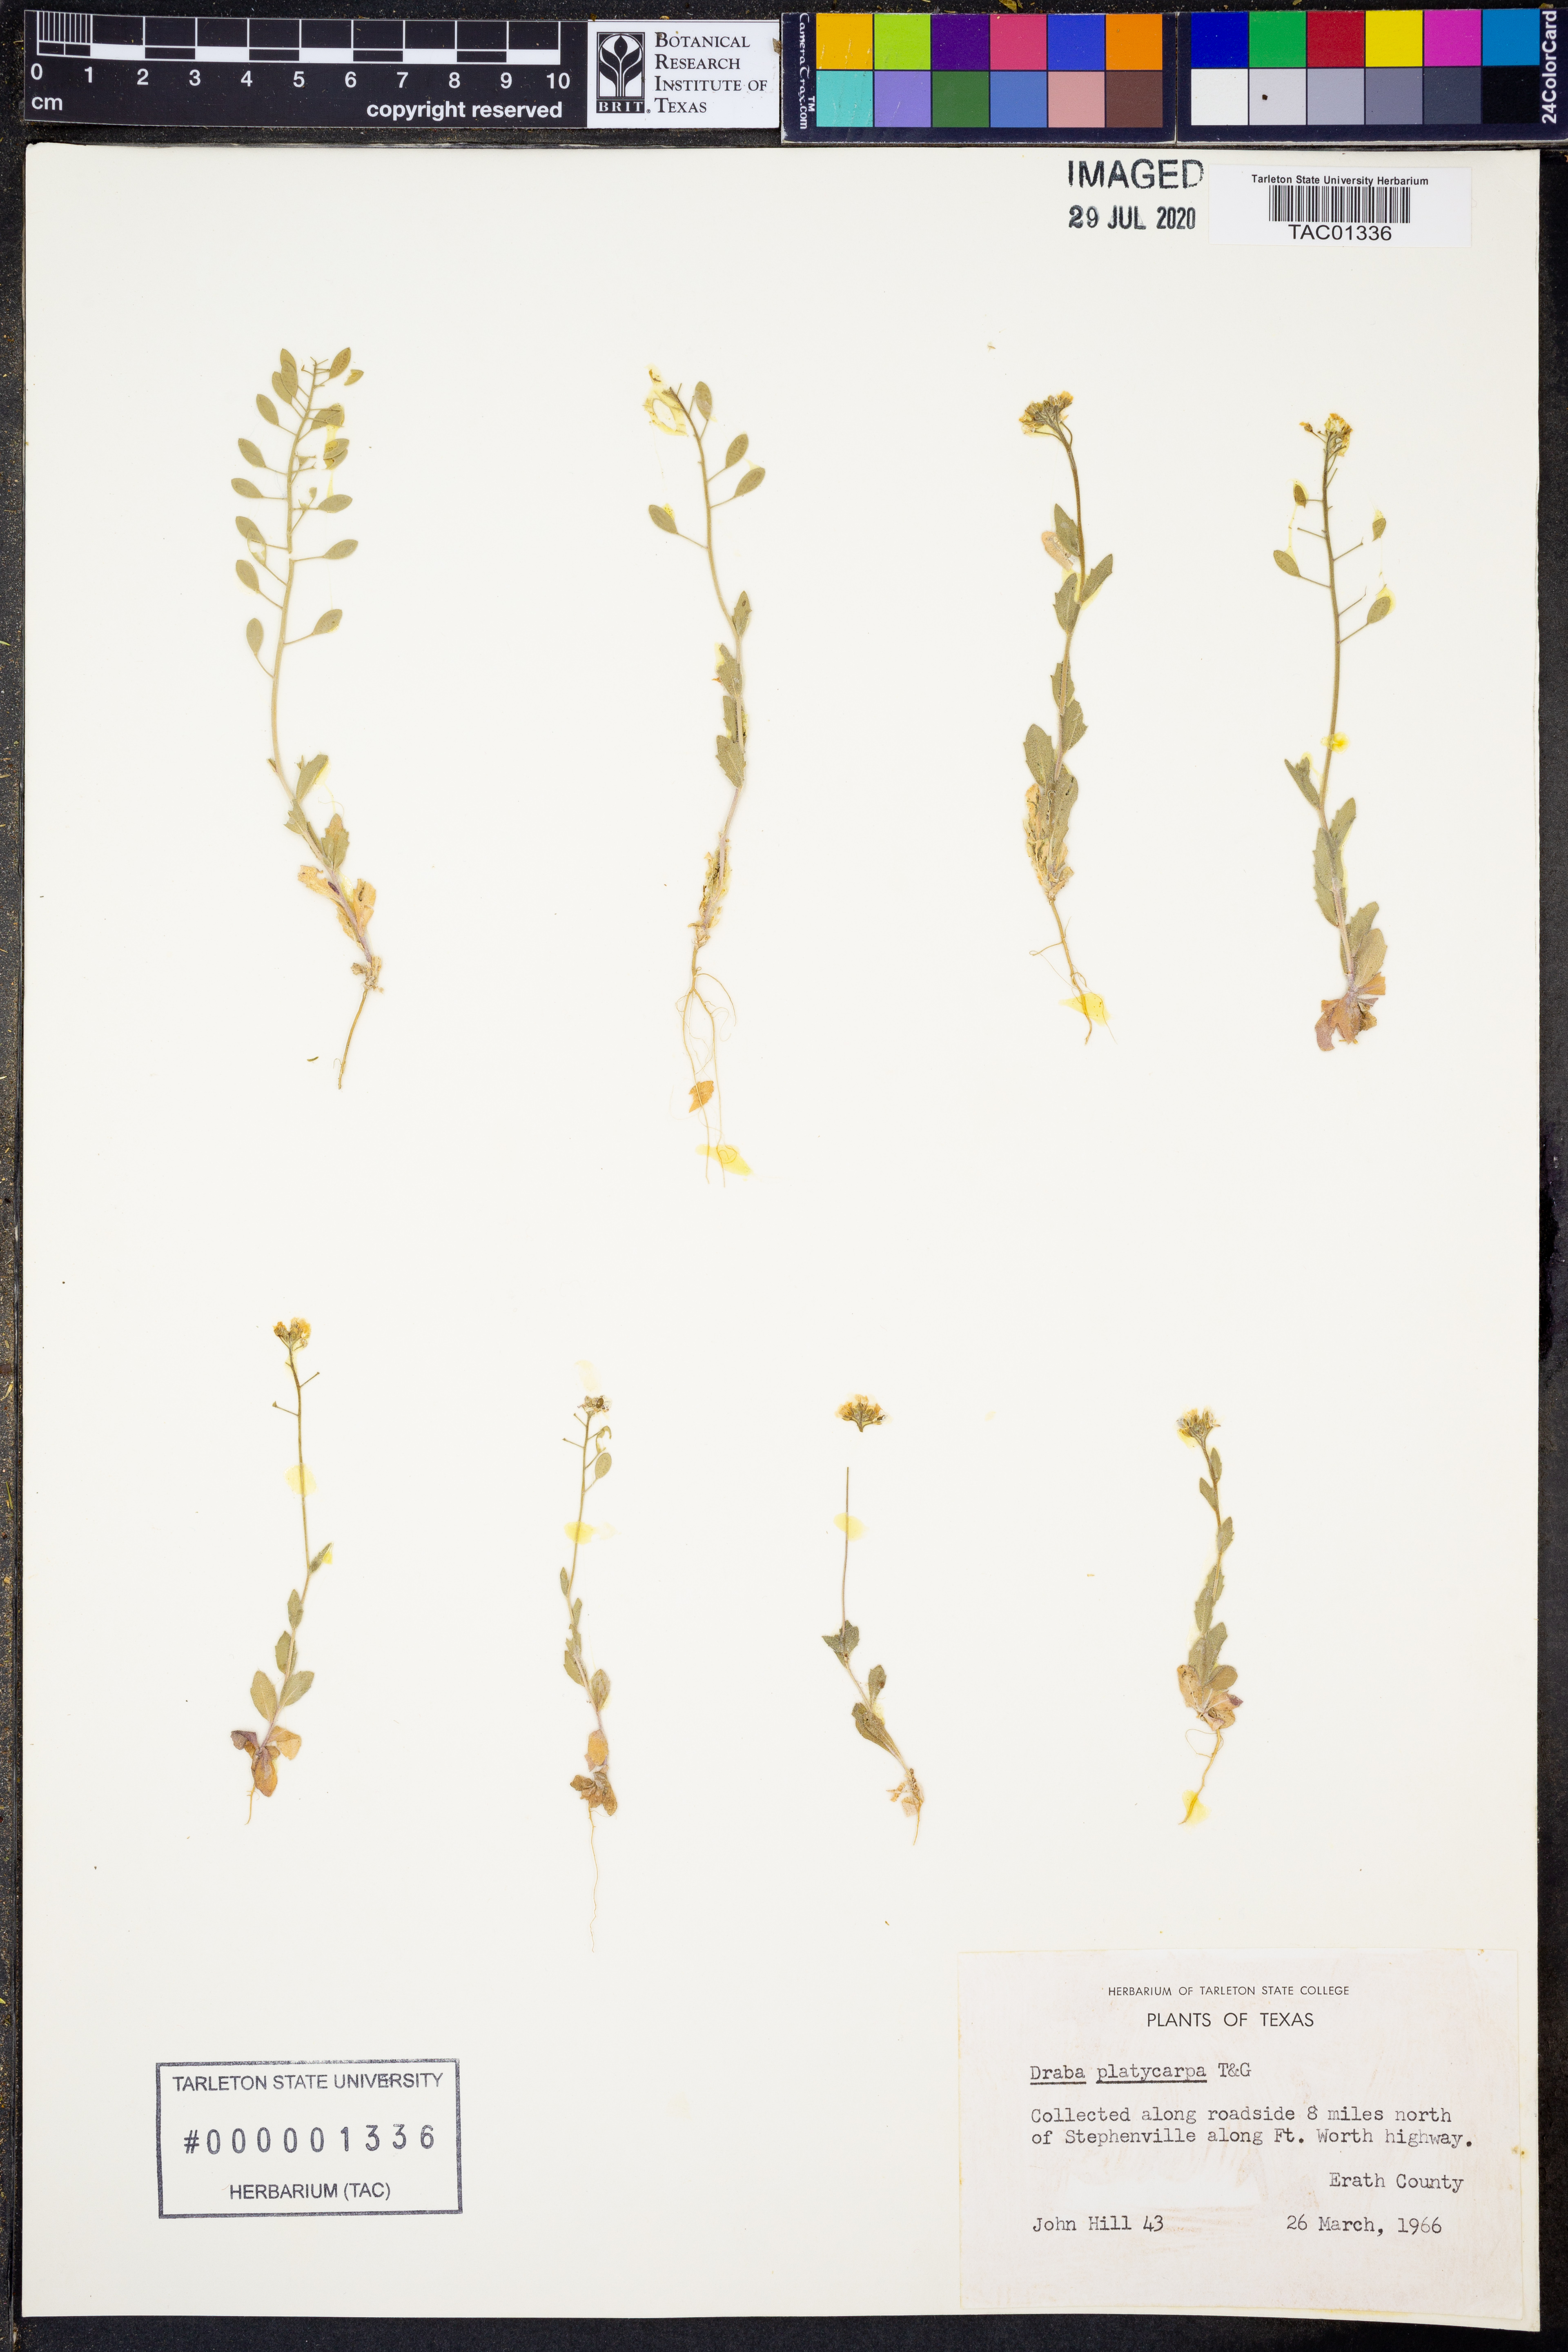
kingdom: Plantae
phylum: Tracheophyta
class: Magnoliopsida
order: Brassicales
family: Brassicaceae
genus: Tomostima
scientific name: Tomostima platycarpa
